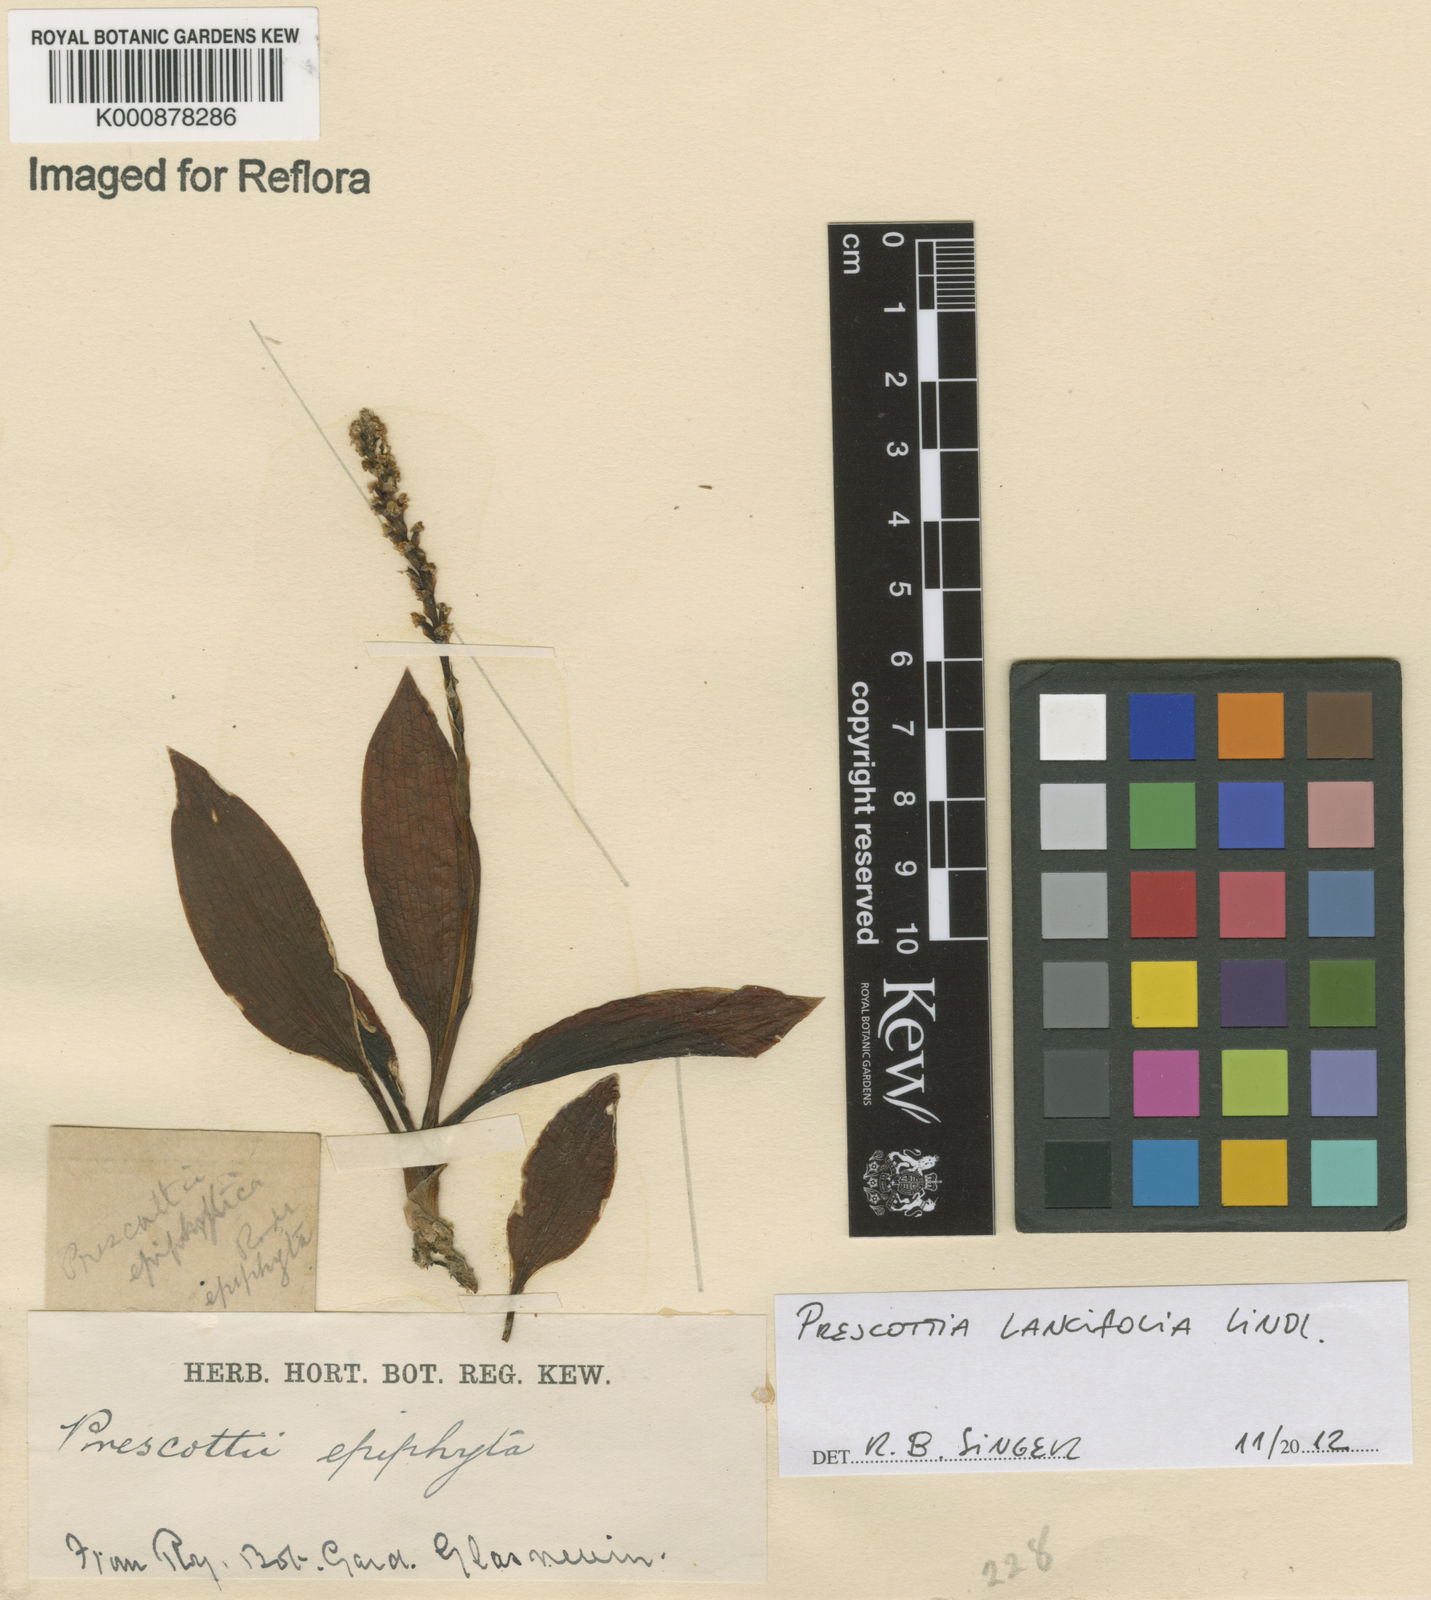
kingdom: Plantae
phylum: Tracheophyta
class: Liliopsida
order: Asparagales
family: Orchidaceae
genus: Prescottia
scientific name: Prescottia lancifolia
